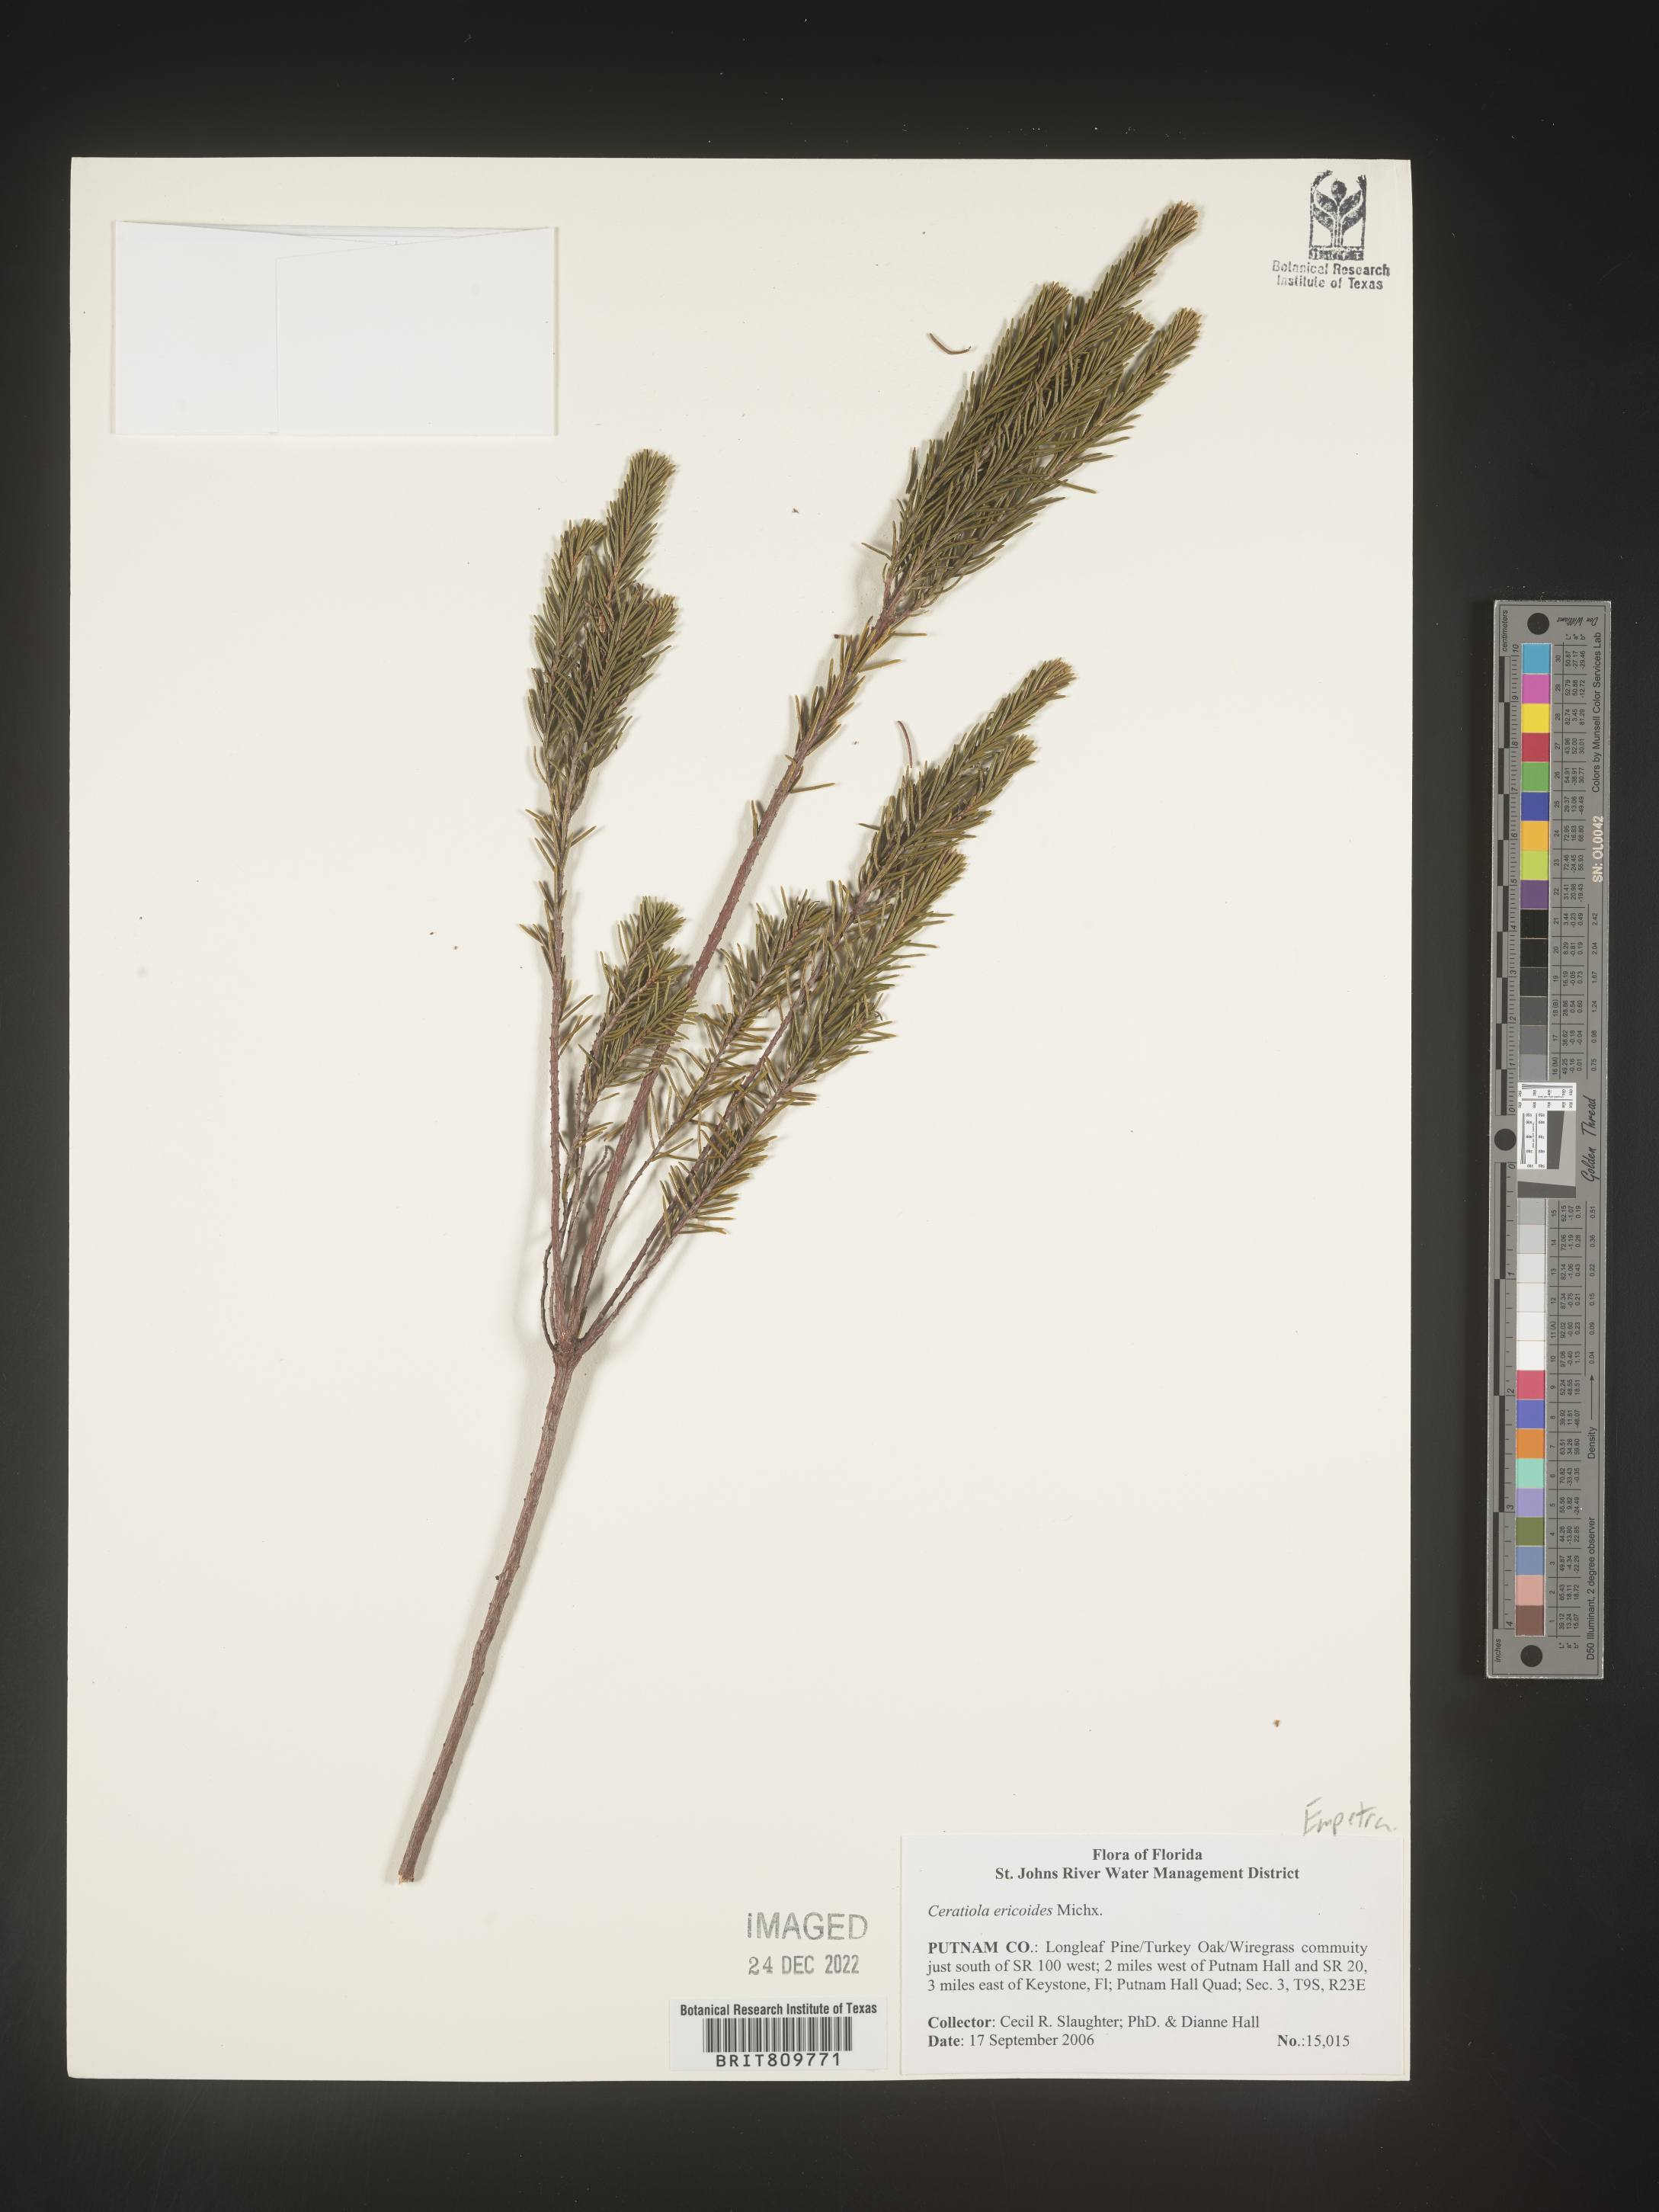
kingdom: Plantae
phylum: Tracheophyta
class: Magnoliopsida
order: Ericales
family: Ericaceae
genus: Ceratiola
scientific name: Ceratiola ericoides
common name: Sandhill-rosemary
